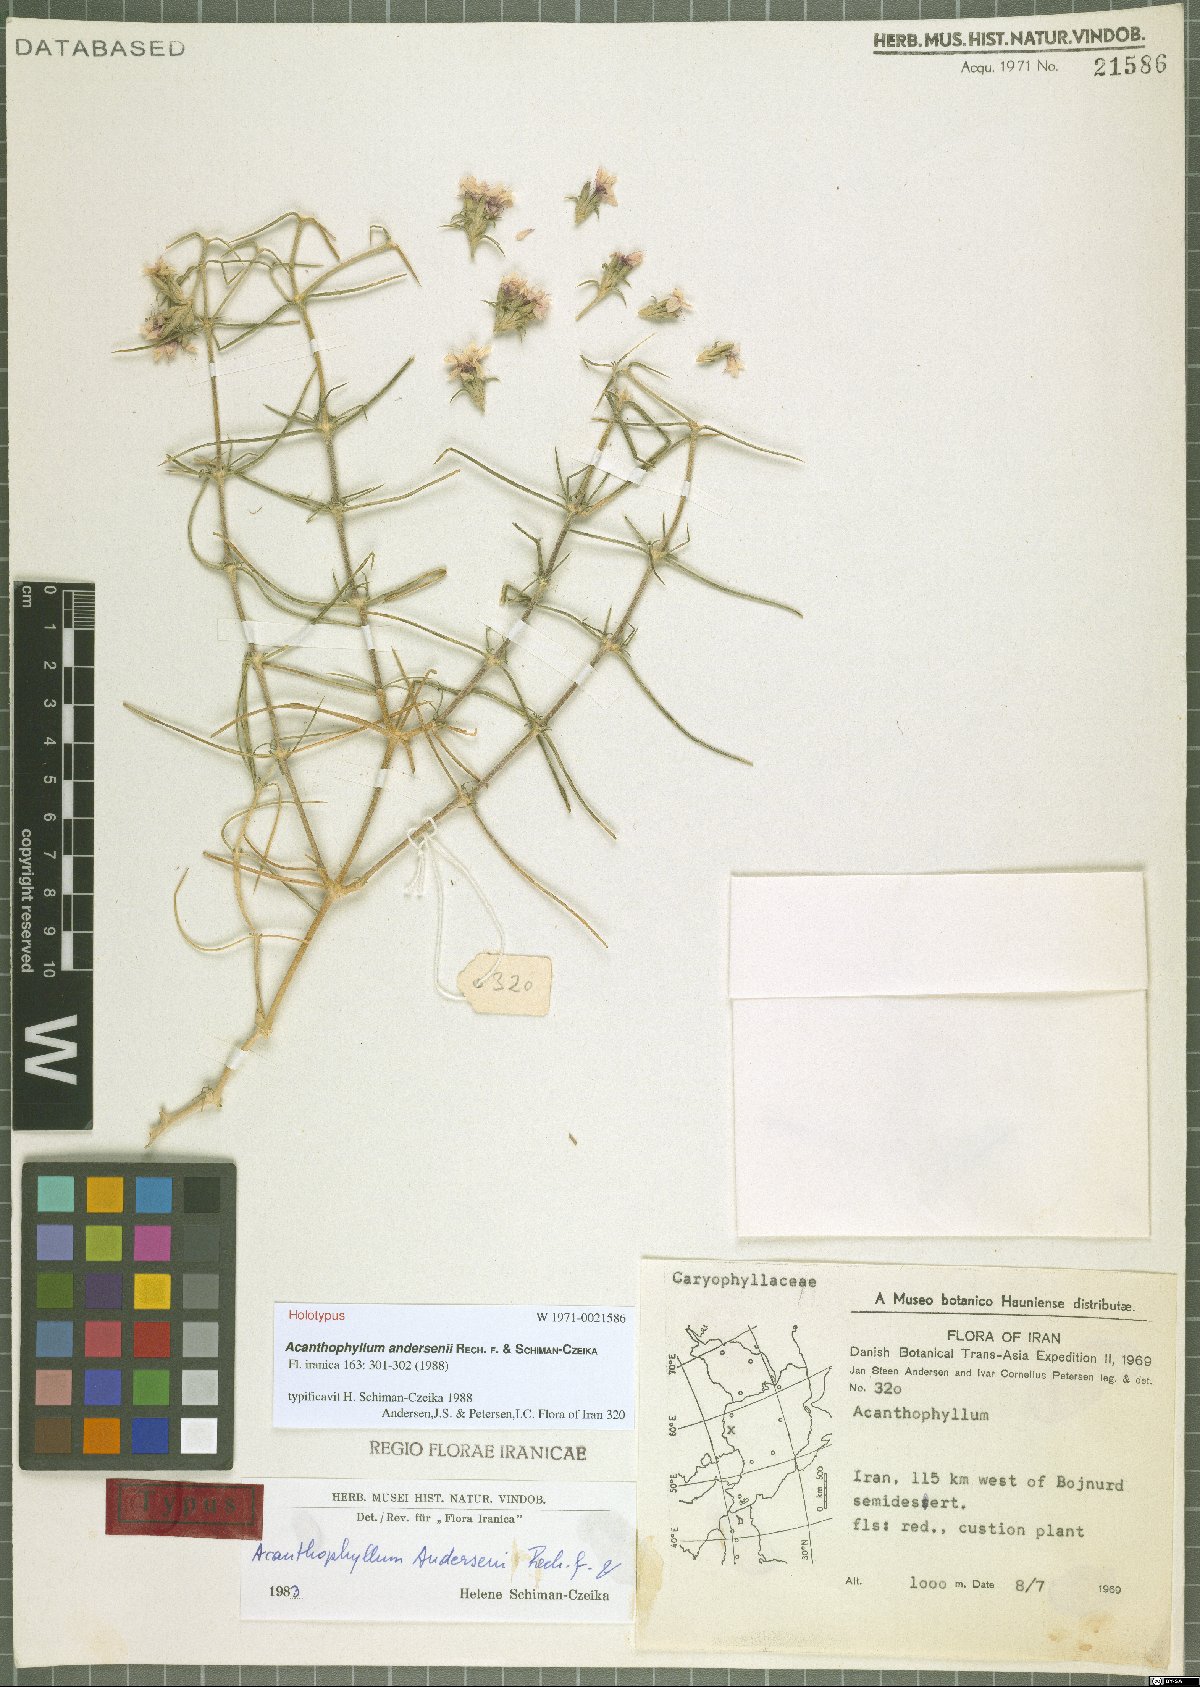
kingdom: Plantae
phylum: Tracheophyta
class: Magnoliopsida
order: Caryophyllales
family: Caryophyllaceae
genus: Acanthophyllum
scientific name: Acanthophyllum andersenii
